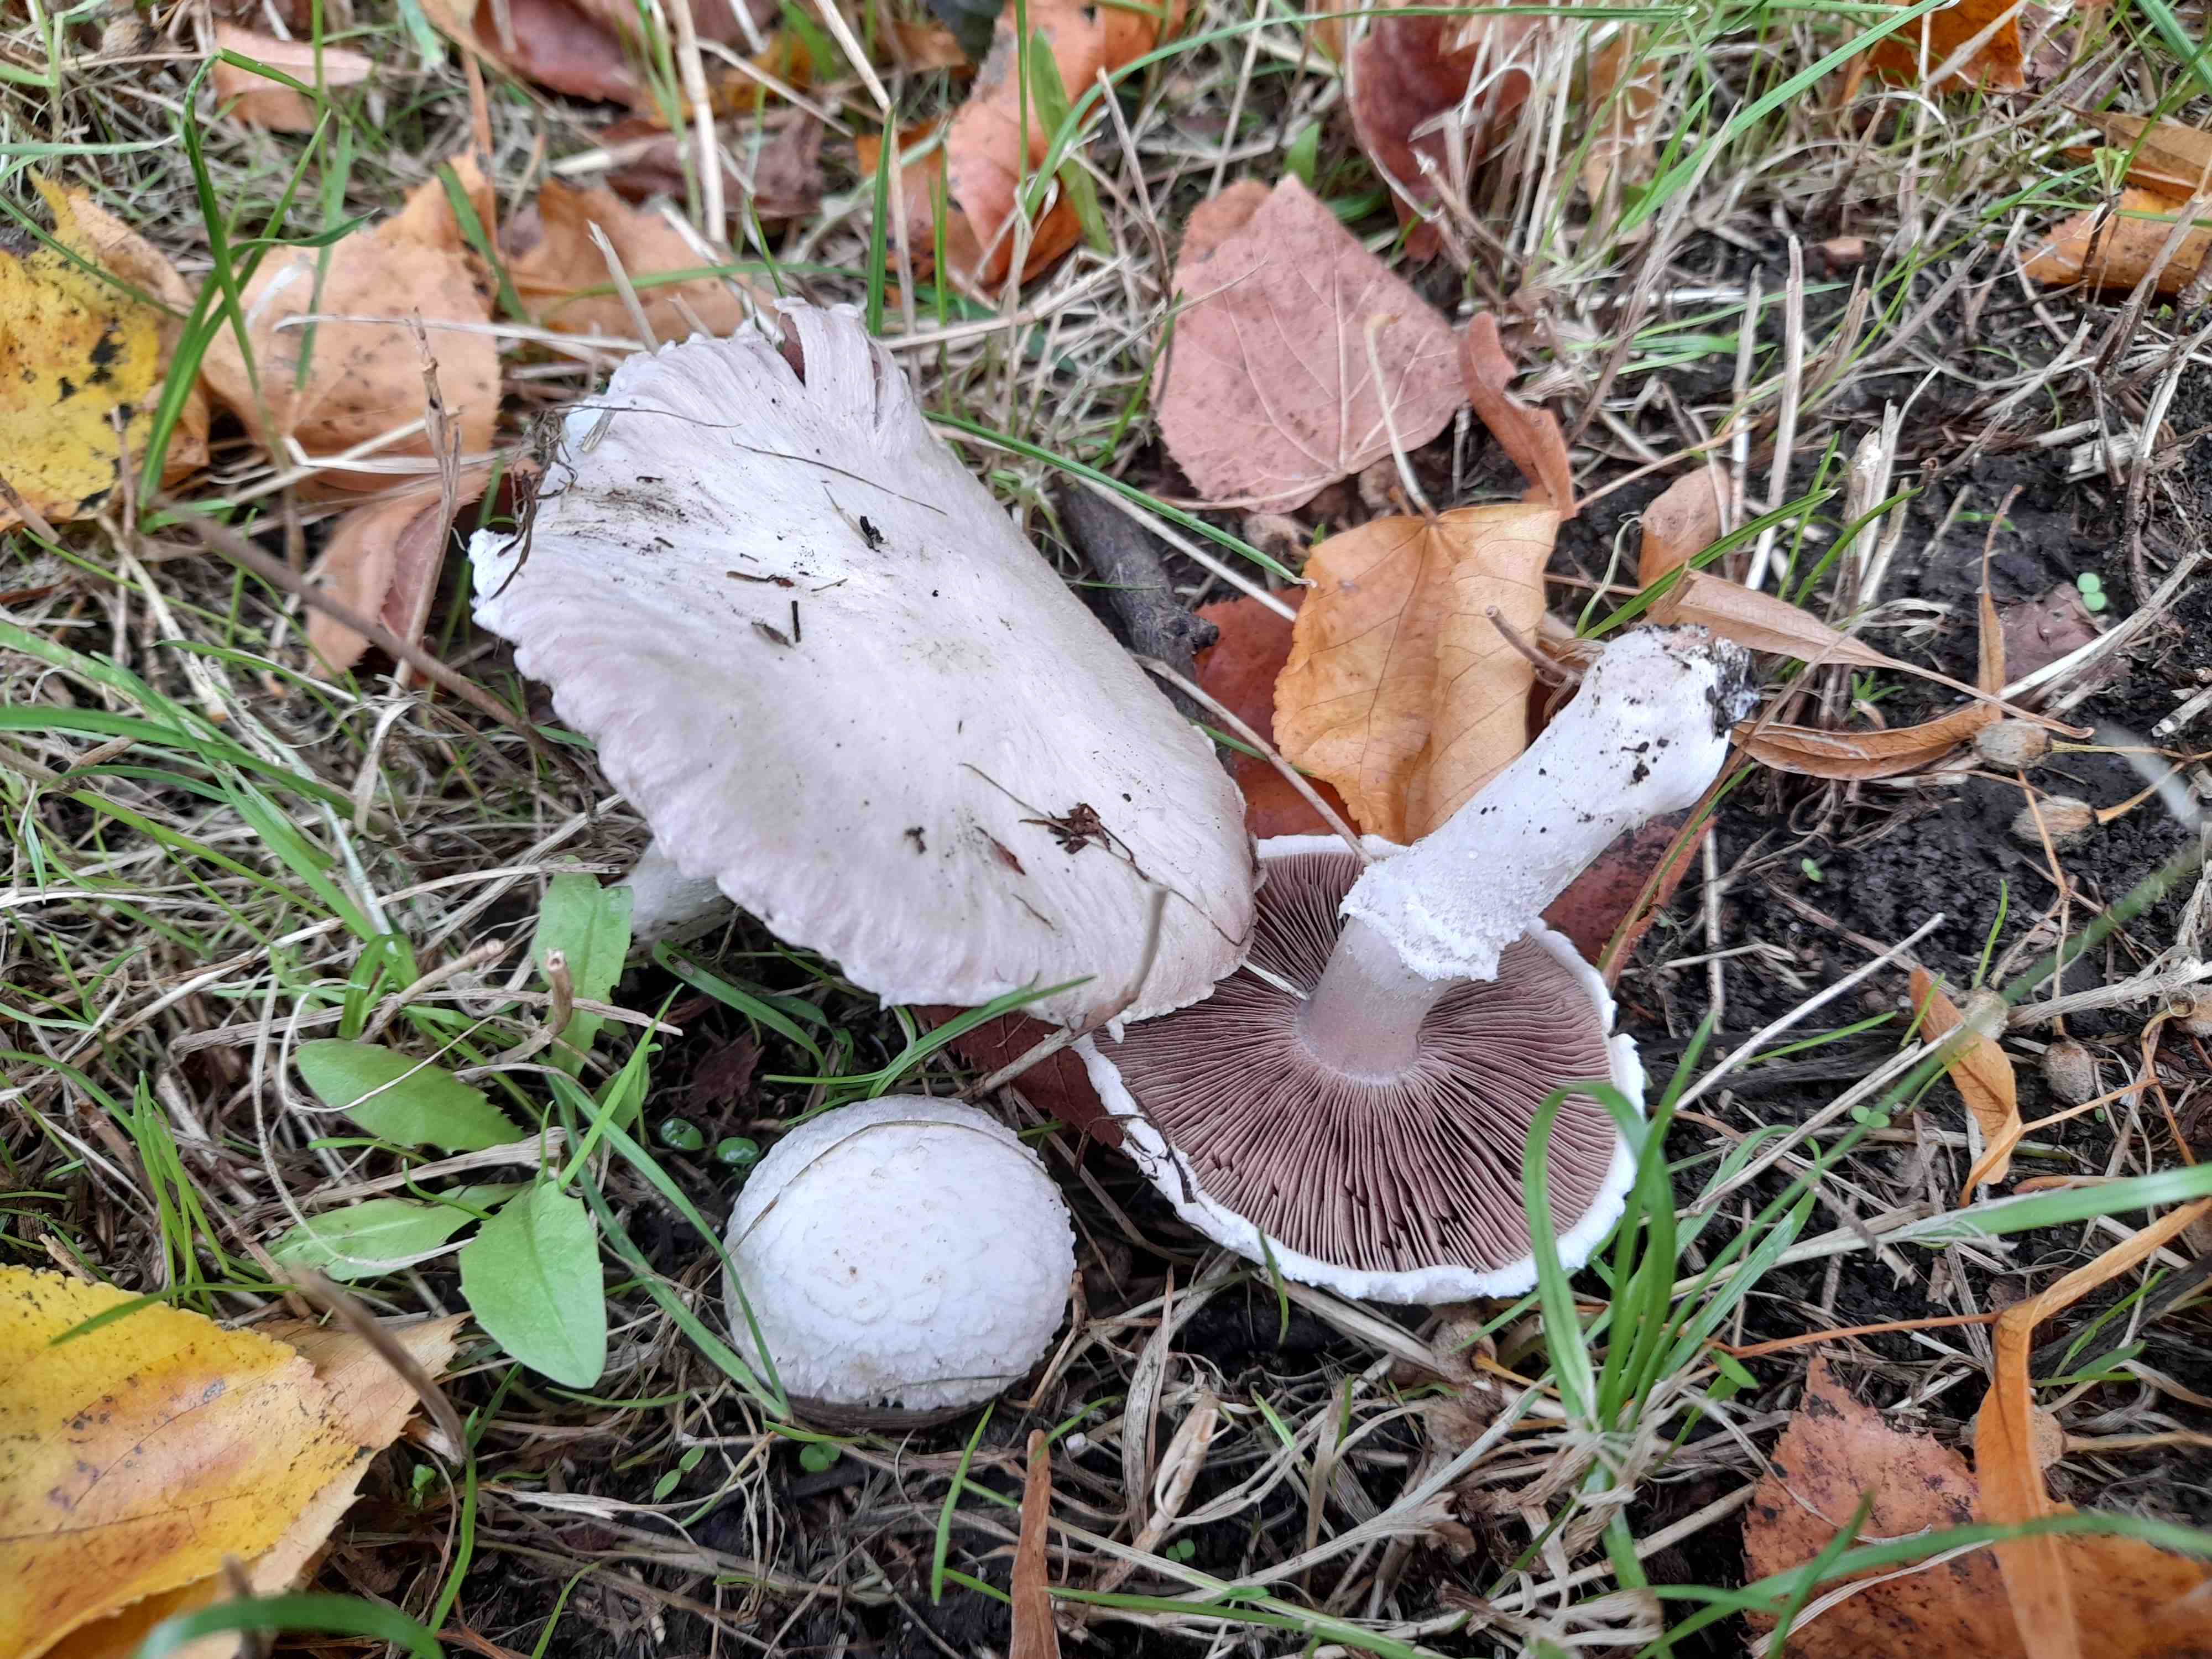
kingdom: Fungi
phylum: Basidiomycota
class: Agaricomycetes
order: Agaricales
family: Agaricaceae
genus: Agaricus
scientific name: Agaricus campestris
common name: mark-champignon
